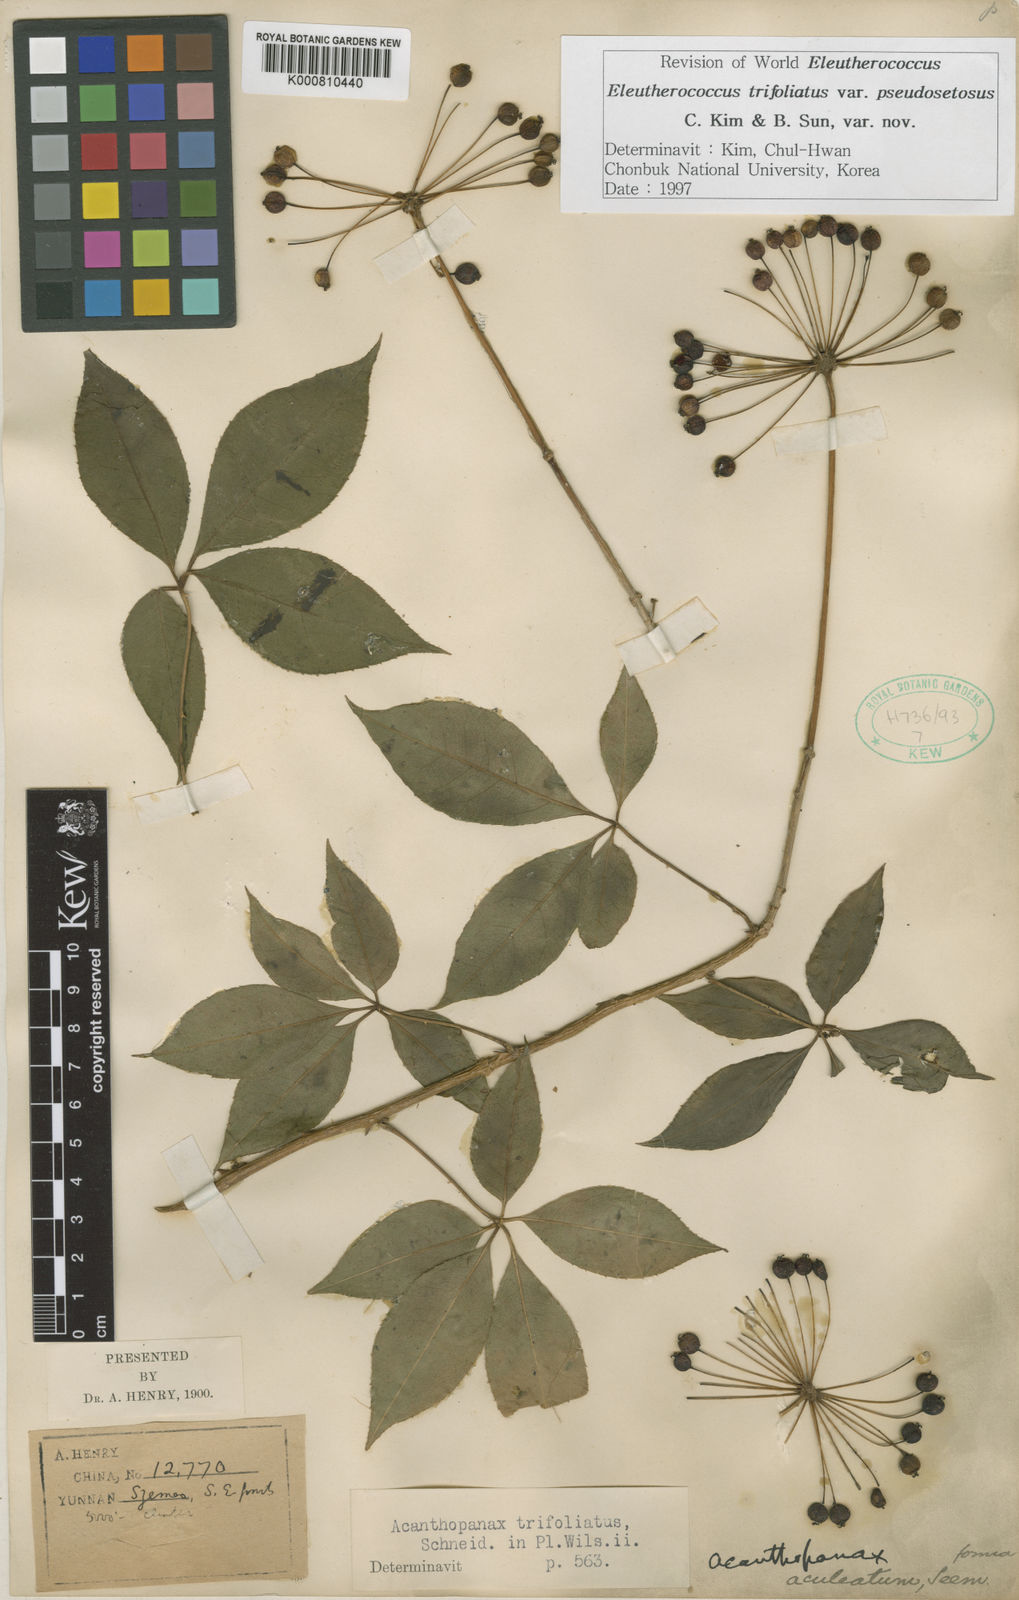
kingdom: Plantae
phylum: Tracheophyta
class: Magnoliopsida
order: Apiales
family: Araliaceae
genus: Eleutherococcus
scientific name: Eleutherococcus trifoliatus
